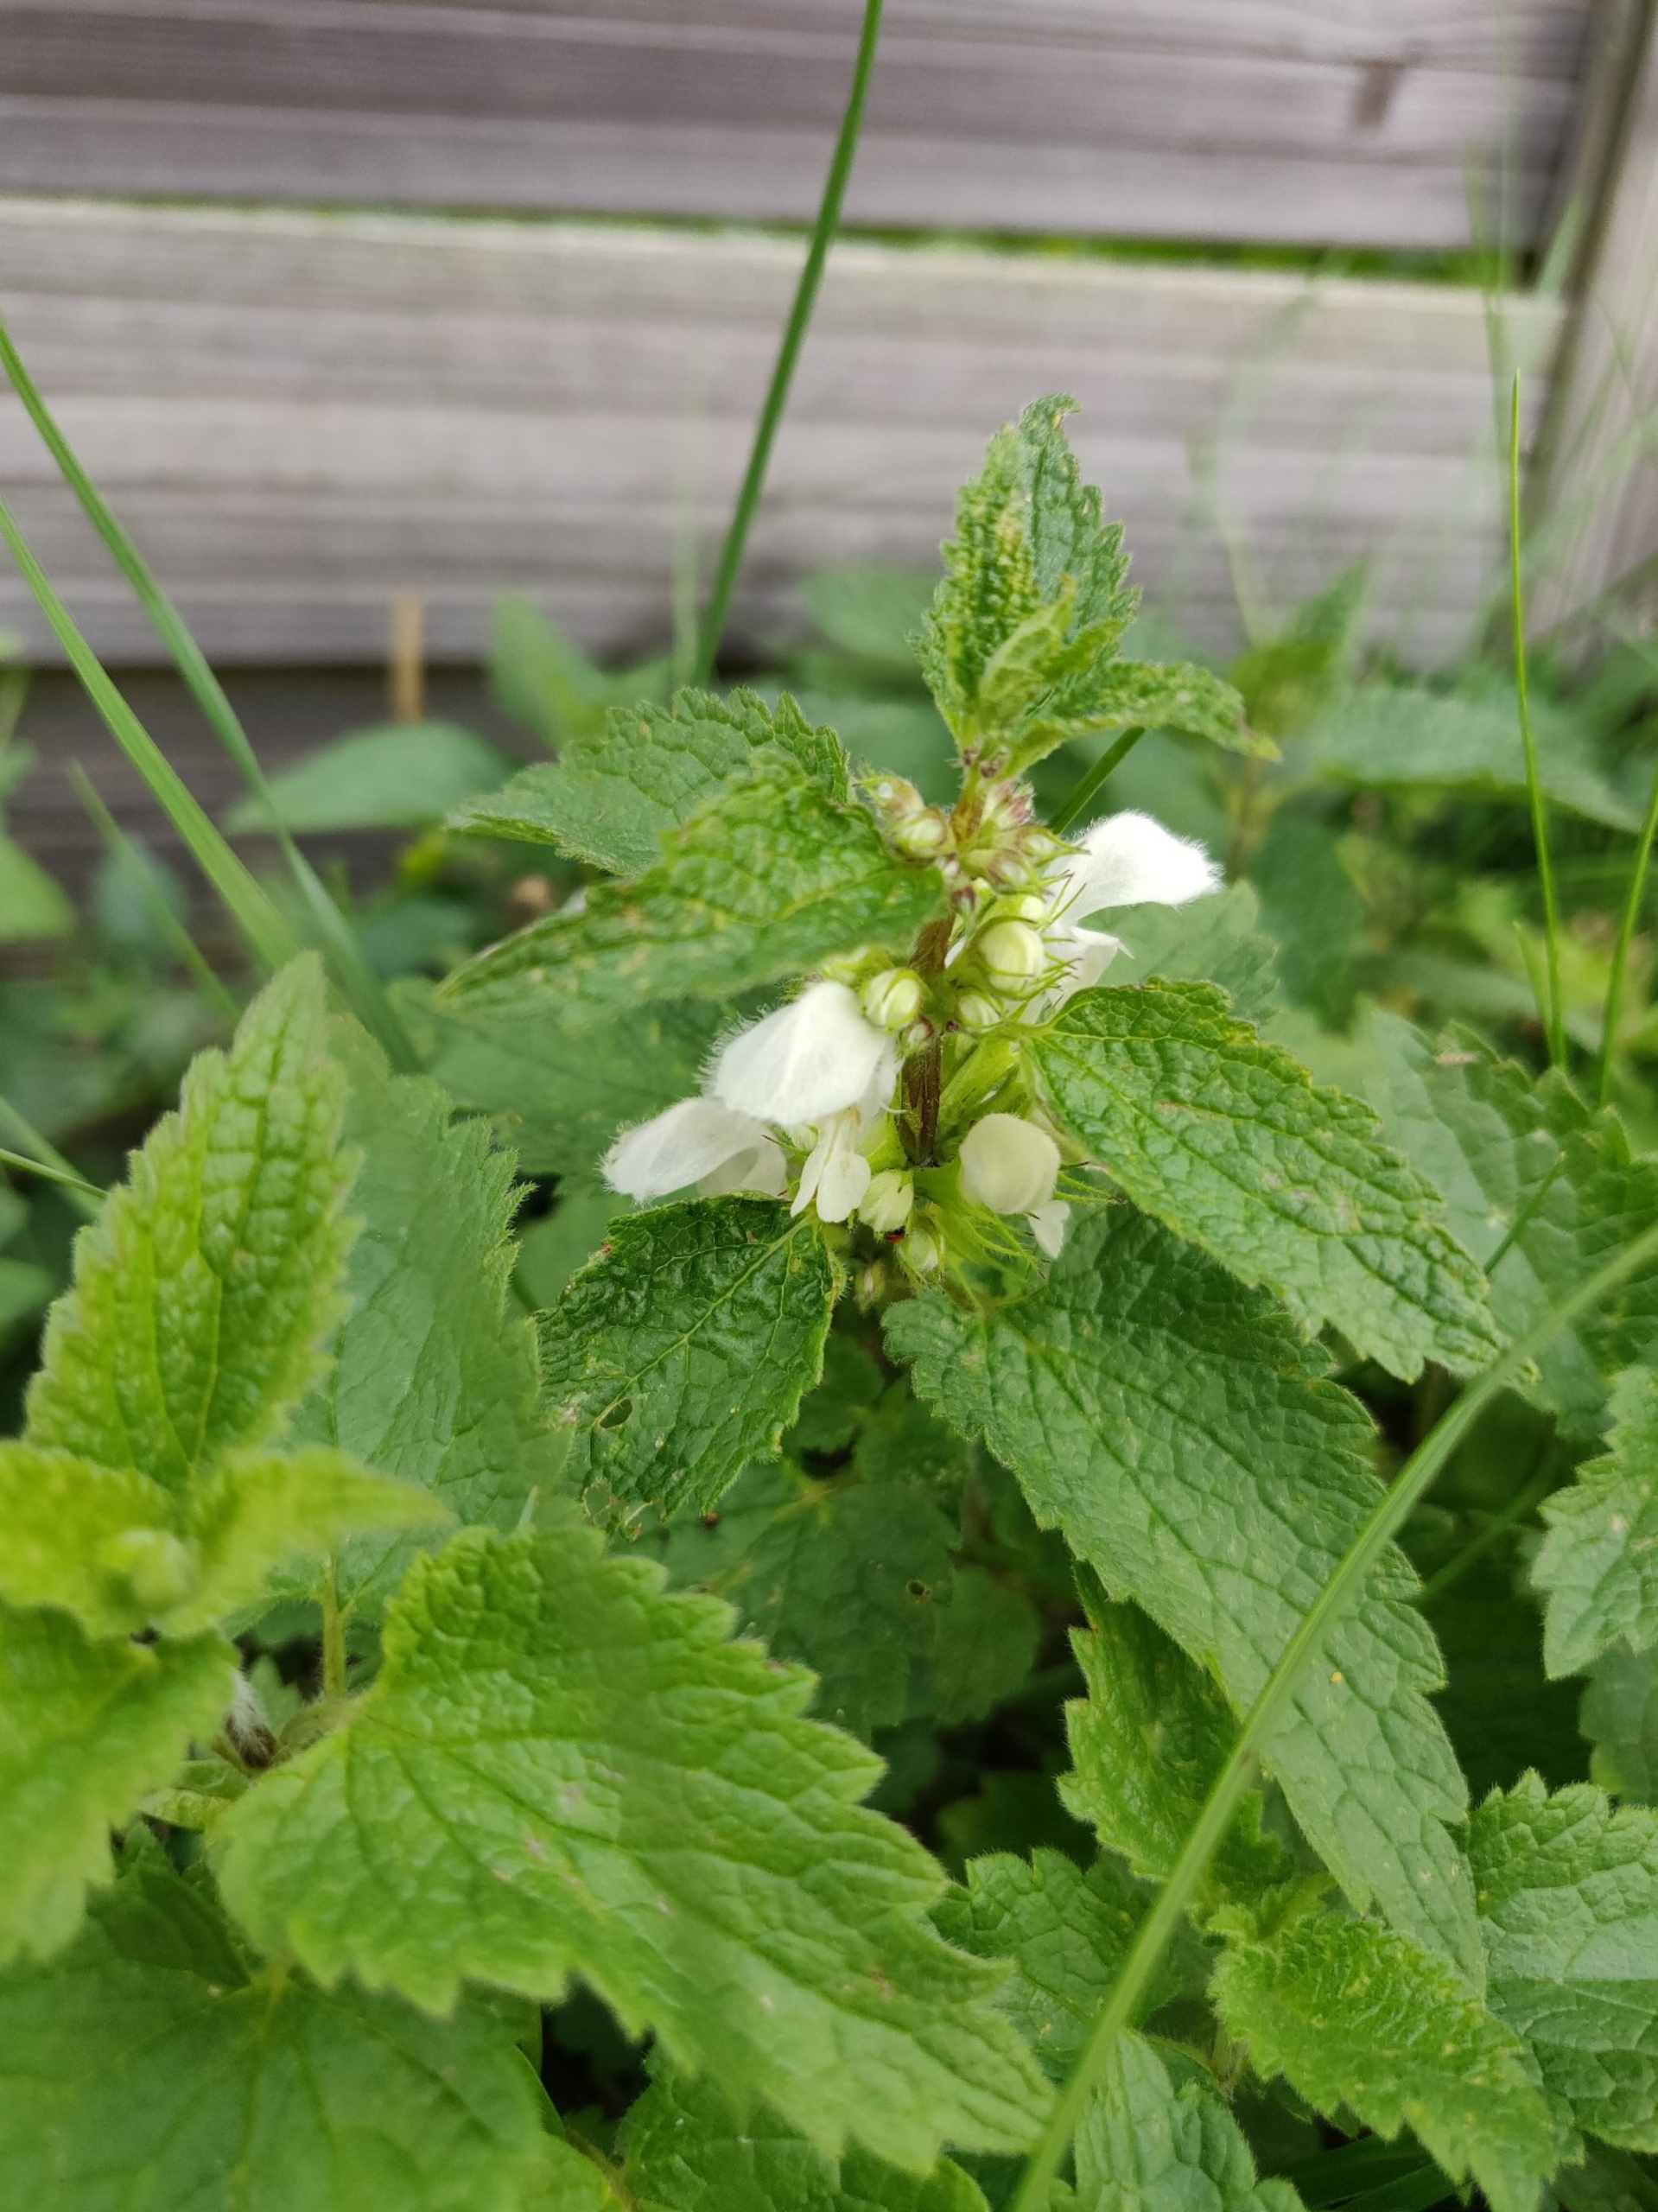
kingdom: Plantae
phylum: Tracheophyta
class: Magnoliopsida
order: Lamiales
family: Lamiaceae
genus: Lamium
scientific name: Lamium album
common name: Døvnælde
